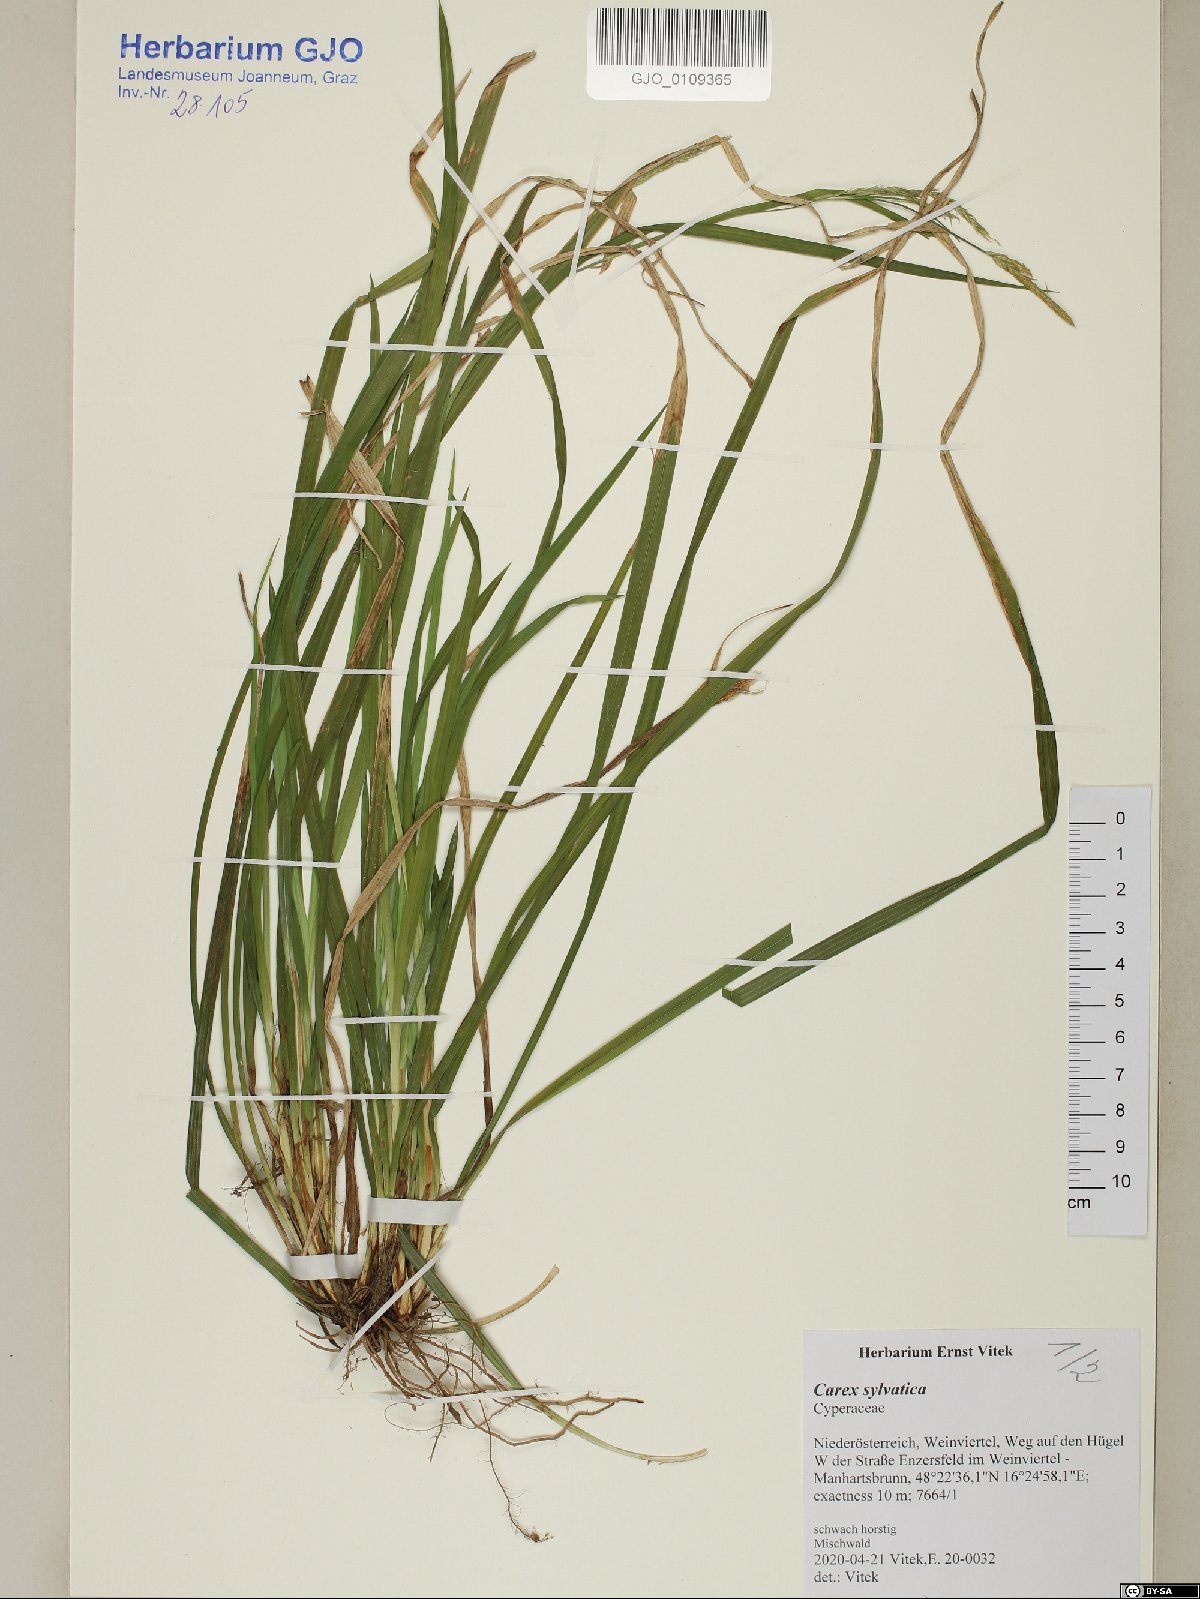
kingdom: Plantae
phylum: Tracheophyta
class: Magnoliopsida
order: Malpighiales
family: Salicaceae
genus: Salix
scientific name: Salix caprea
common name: Goat willow
